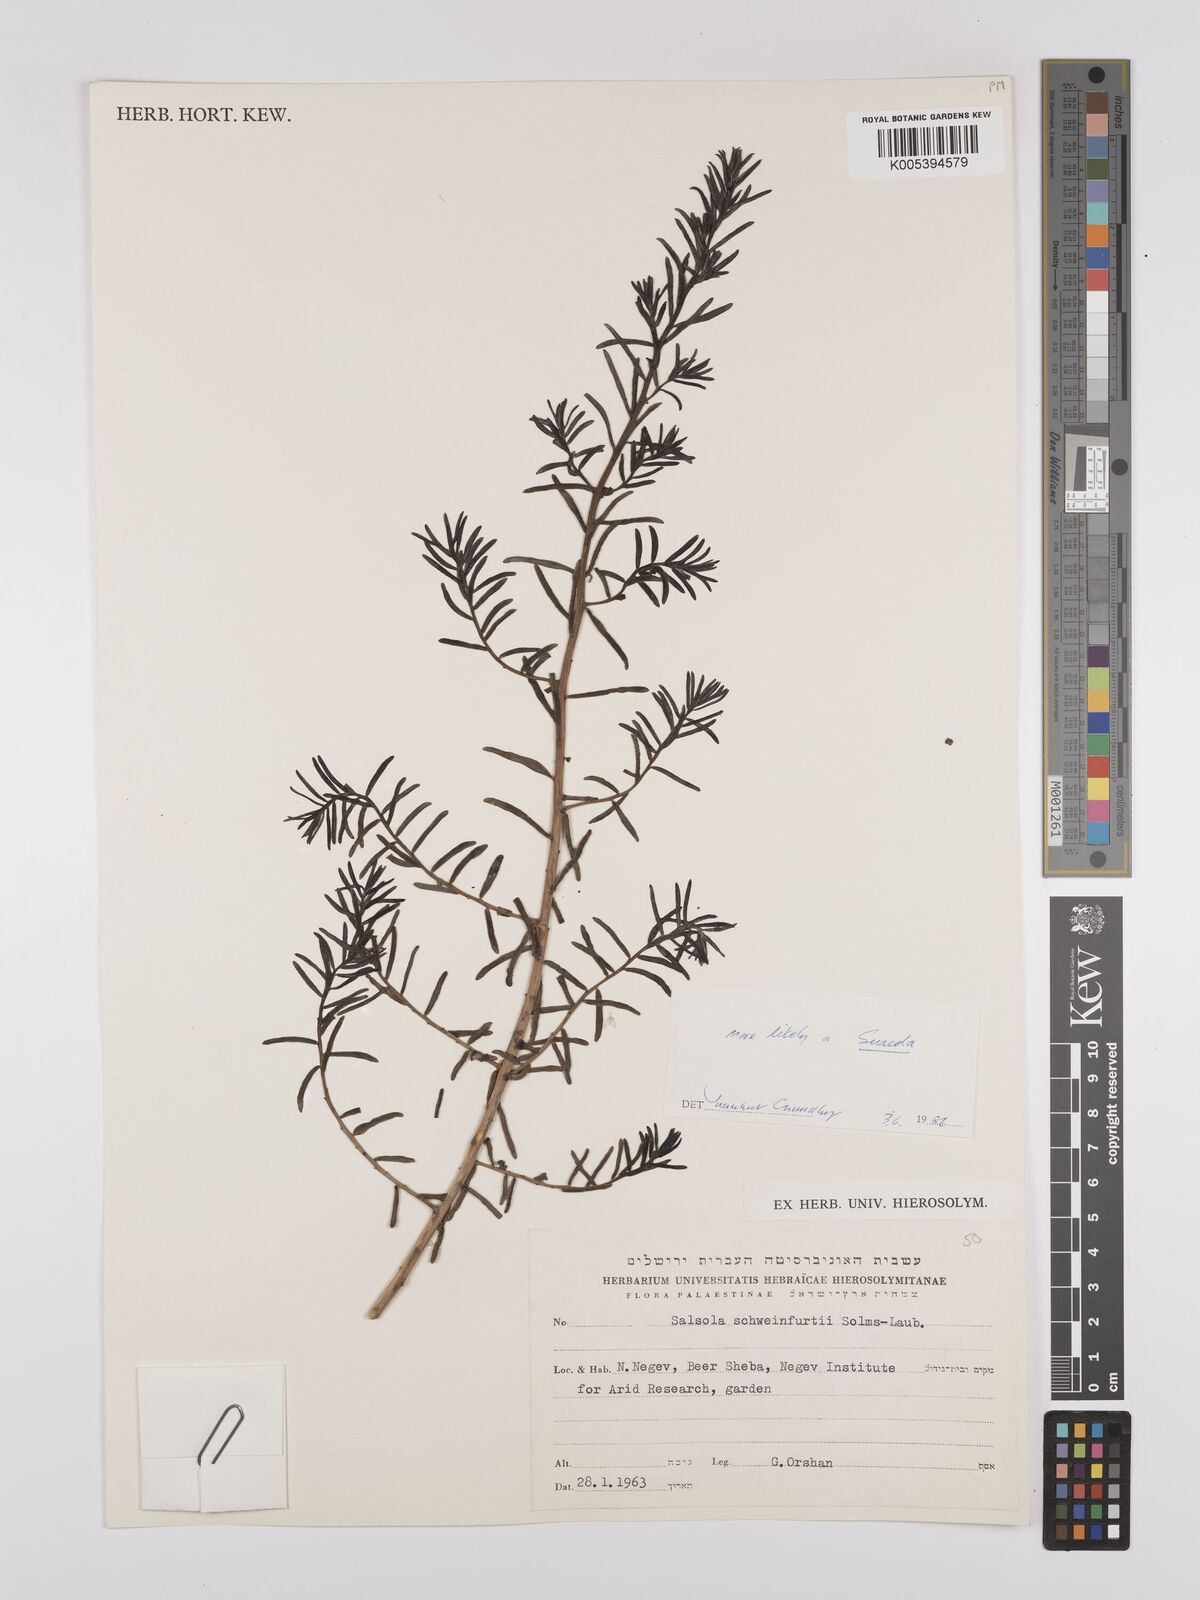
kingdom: Plantae
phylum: Tracheophyta
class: Magnoliopsida
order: Caryophyllales
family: Amaranthaceae
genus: Suaeda
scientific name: Suaeda
